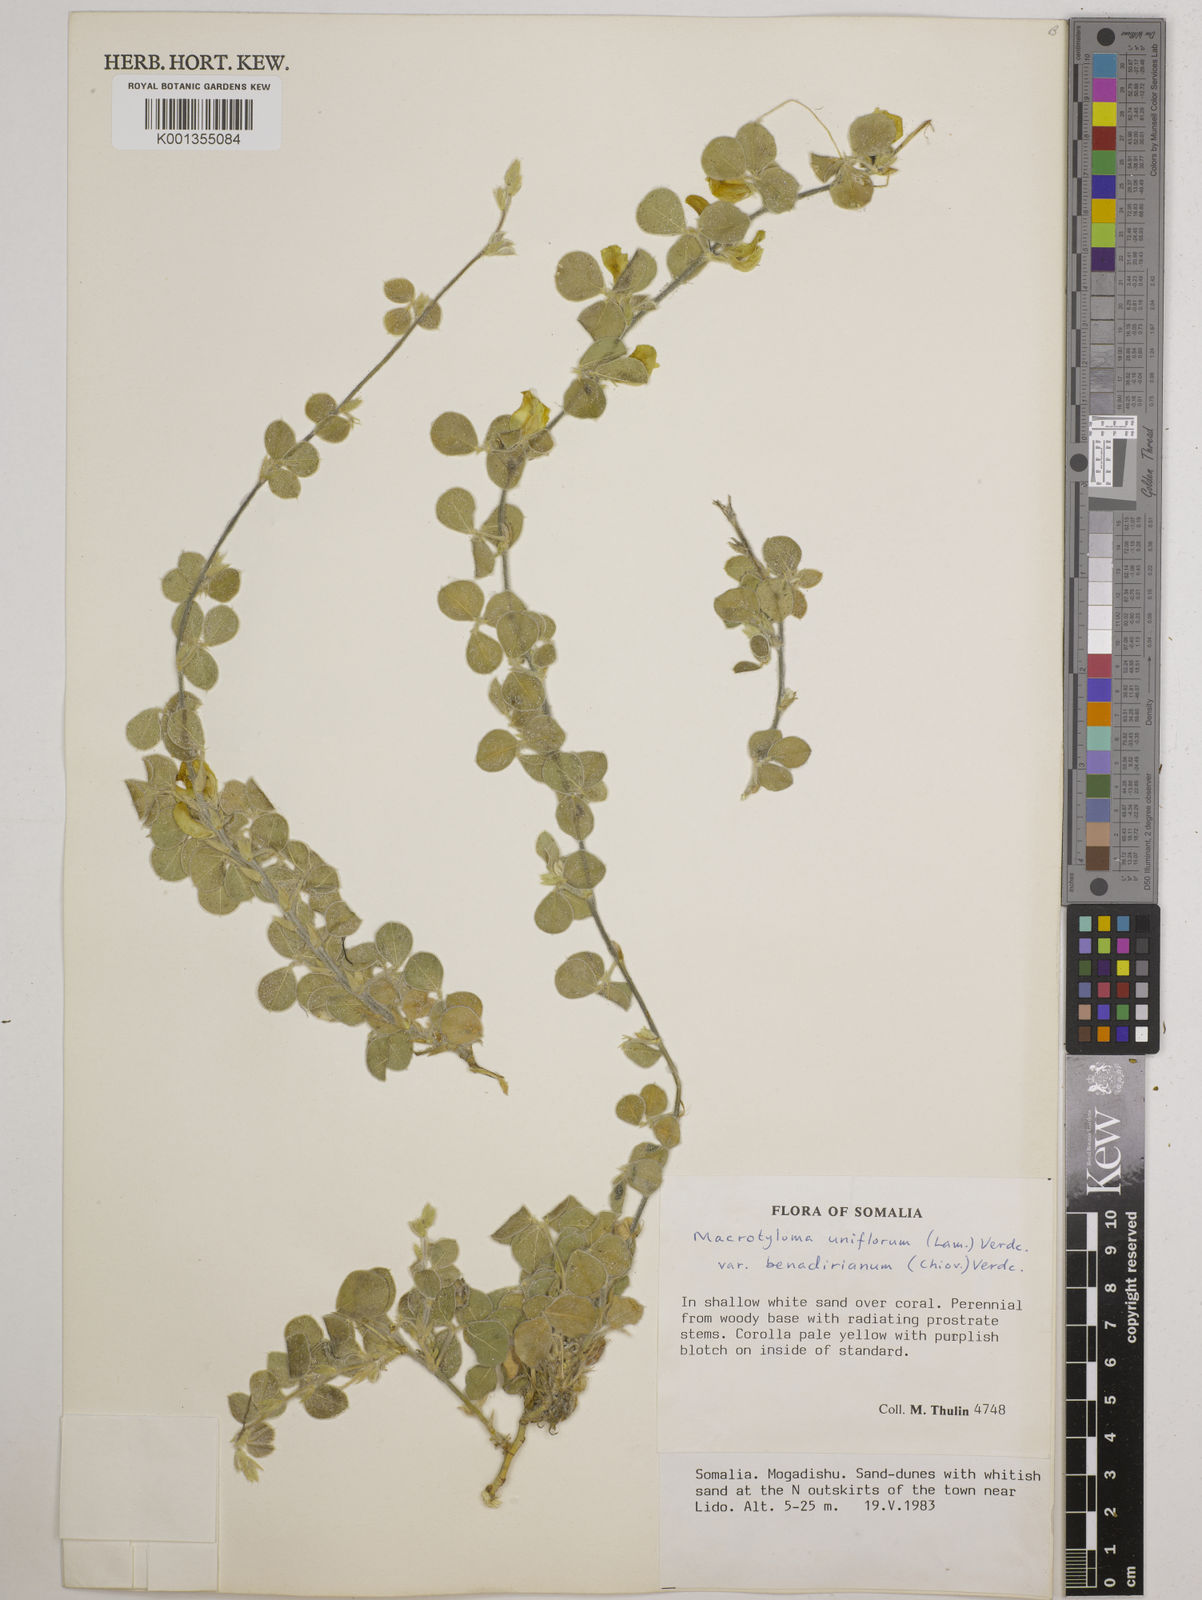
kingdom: Plantae
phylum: Tracheophyta
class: Magnoliopsida
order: Fabales
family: Fabaceae
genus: Macrotyloma
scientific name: Macrotyloma uniflorum
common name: Horse gram
